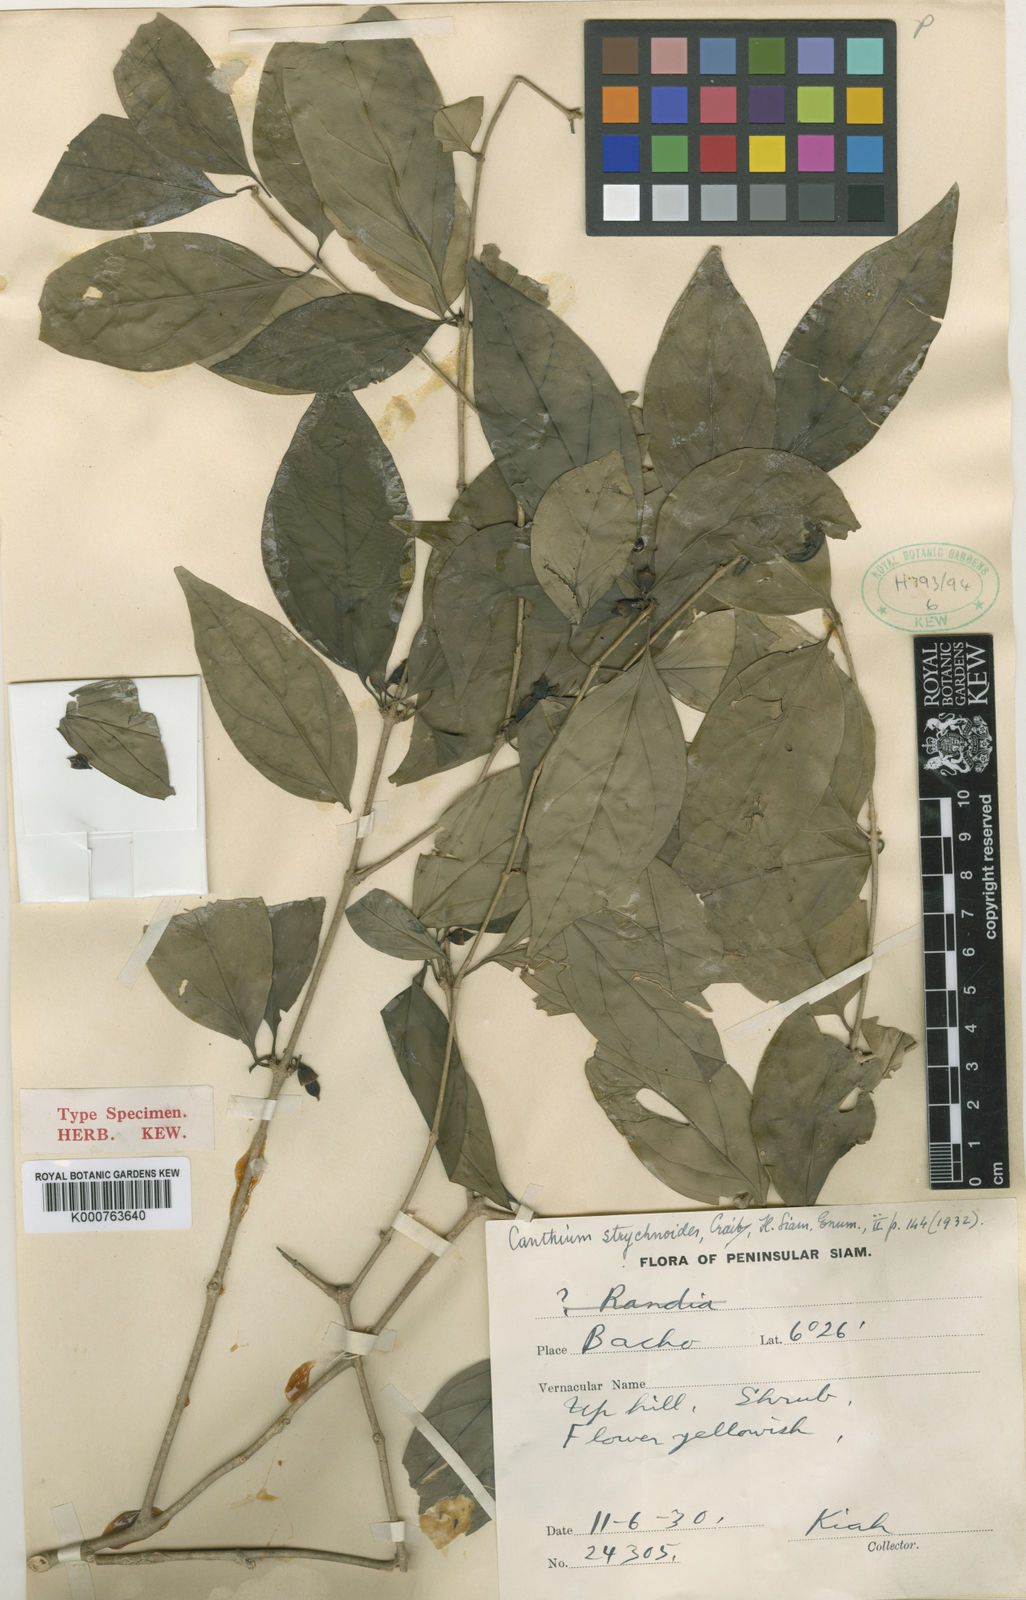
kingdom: Plantae
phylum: Tracheophyta
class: Magnoliopsida
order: Gentianales
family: Rubiaceae
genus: Canthium
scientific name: Canthium strychnoides
